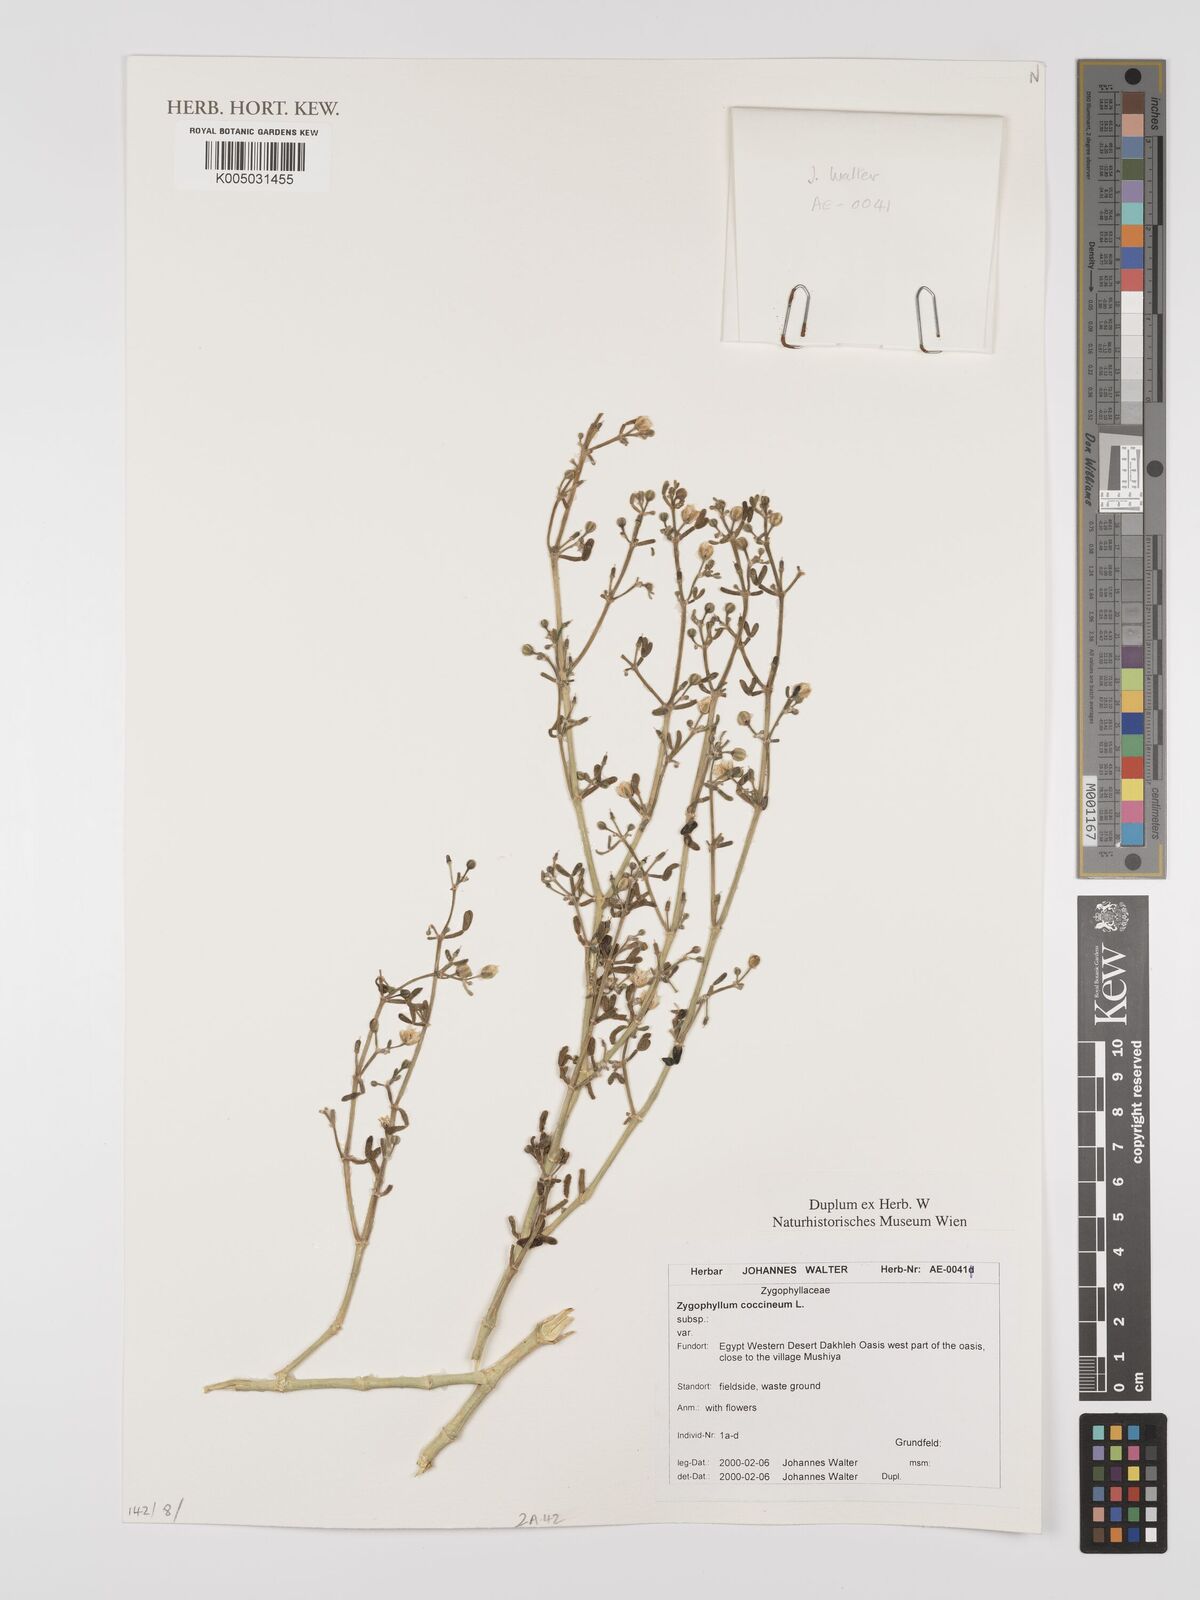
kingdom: Plantae
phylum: Tracheophyta
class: Magnoliopsida
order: Zygophyllales
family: Zygophyllaceae
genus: Zygophyllum
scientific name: Zygophyllum
